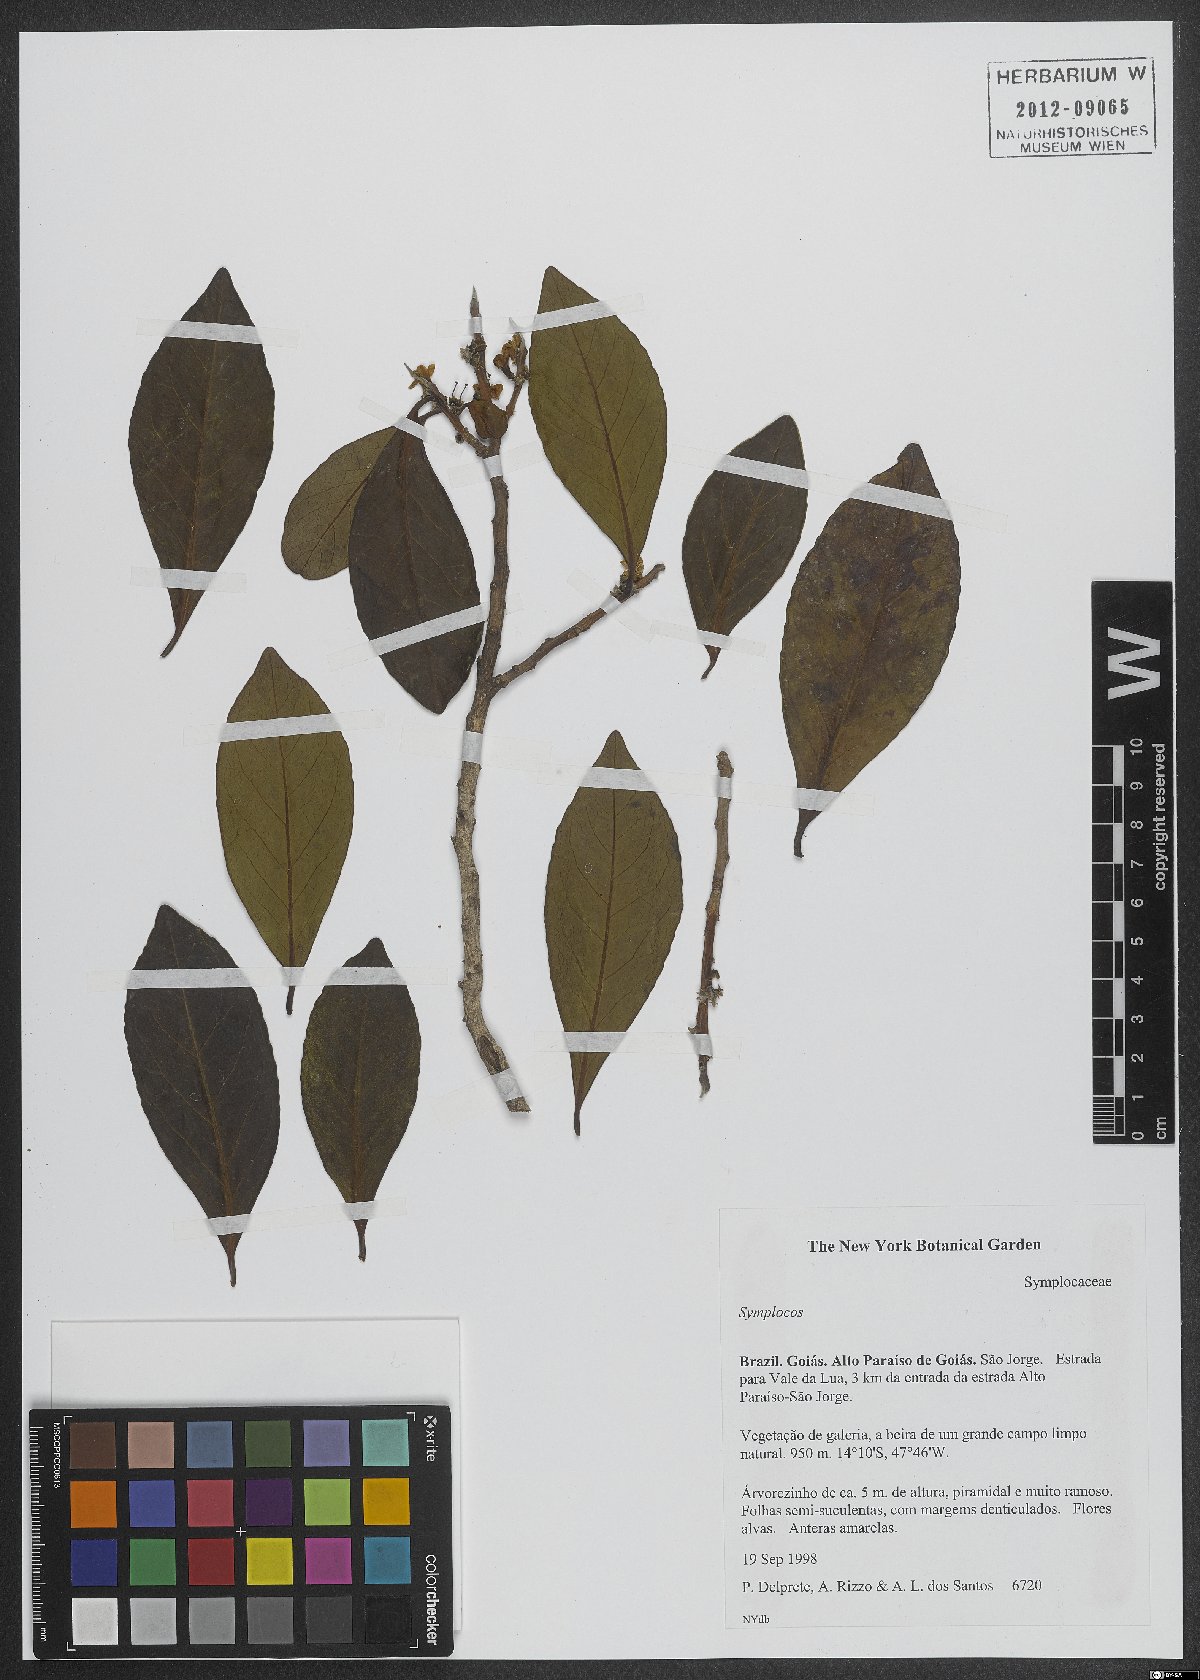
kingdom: Plantae
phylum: Tracheophyta
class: Magnoliopsida
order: Ericales
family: Symplocaceae
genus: Symplocos
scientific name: Symplocos
